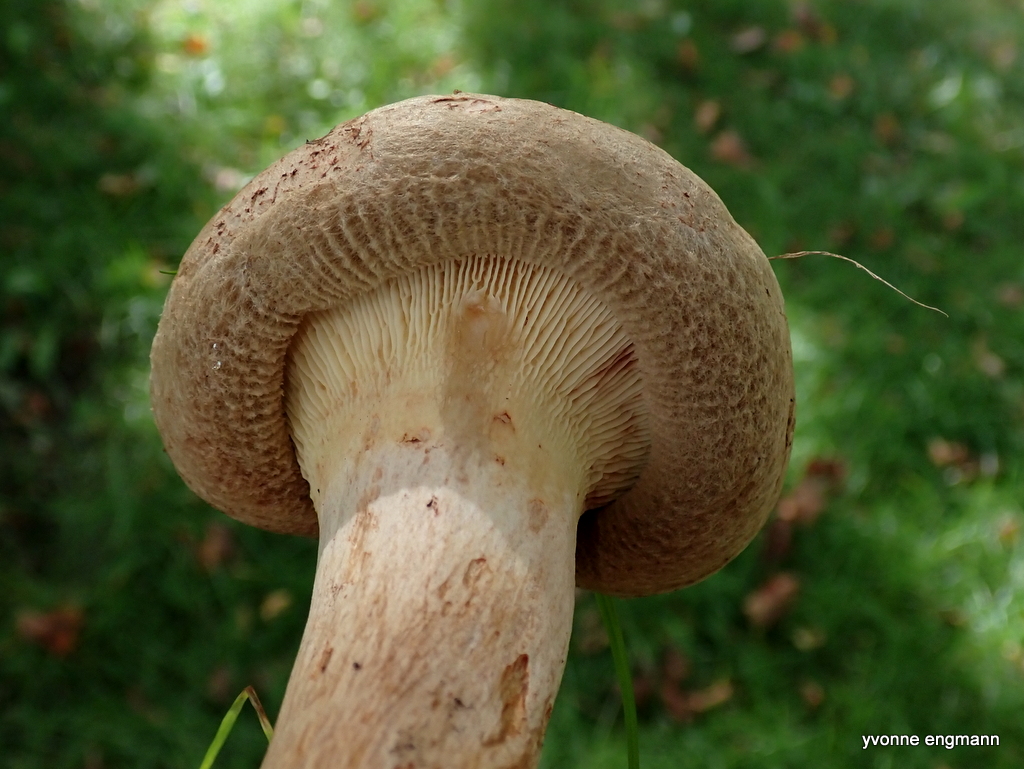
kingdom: Fungi
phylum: Basidiomycota
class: Agaricomycetes
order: Boletales
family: Paxillaceae
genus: Paxillus
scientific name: Paxillus involutus
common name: almindelig netbladhat
